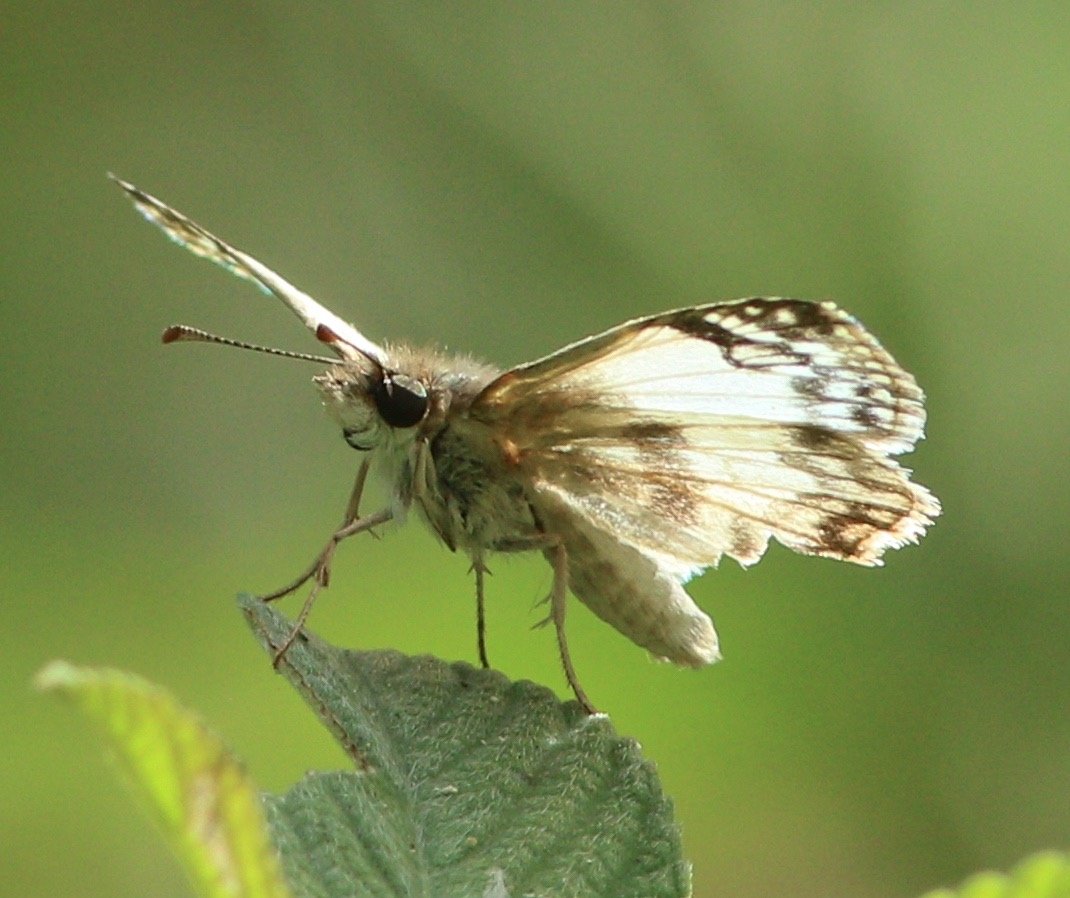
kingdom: Animalia
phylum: Arthropoda
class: Insecta
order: Lepidoptera
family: Hesperiidae
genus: Heliopetes
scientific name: Heliopetes sublinea
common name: East-Mexican White-Skipper
